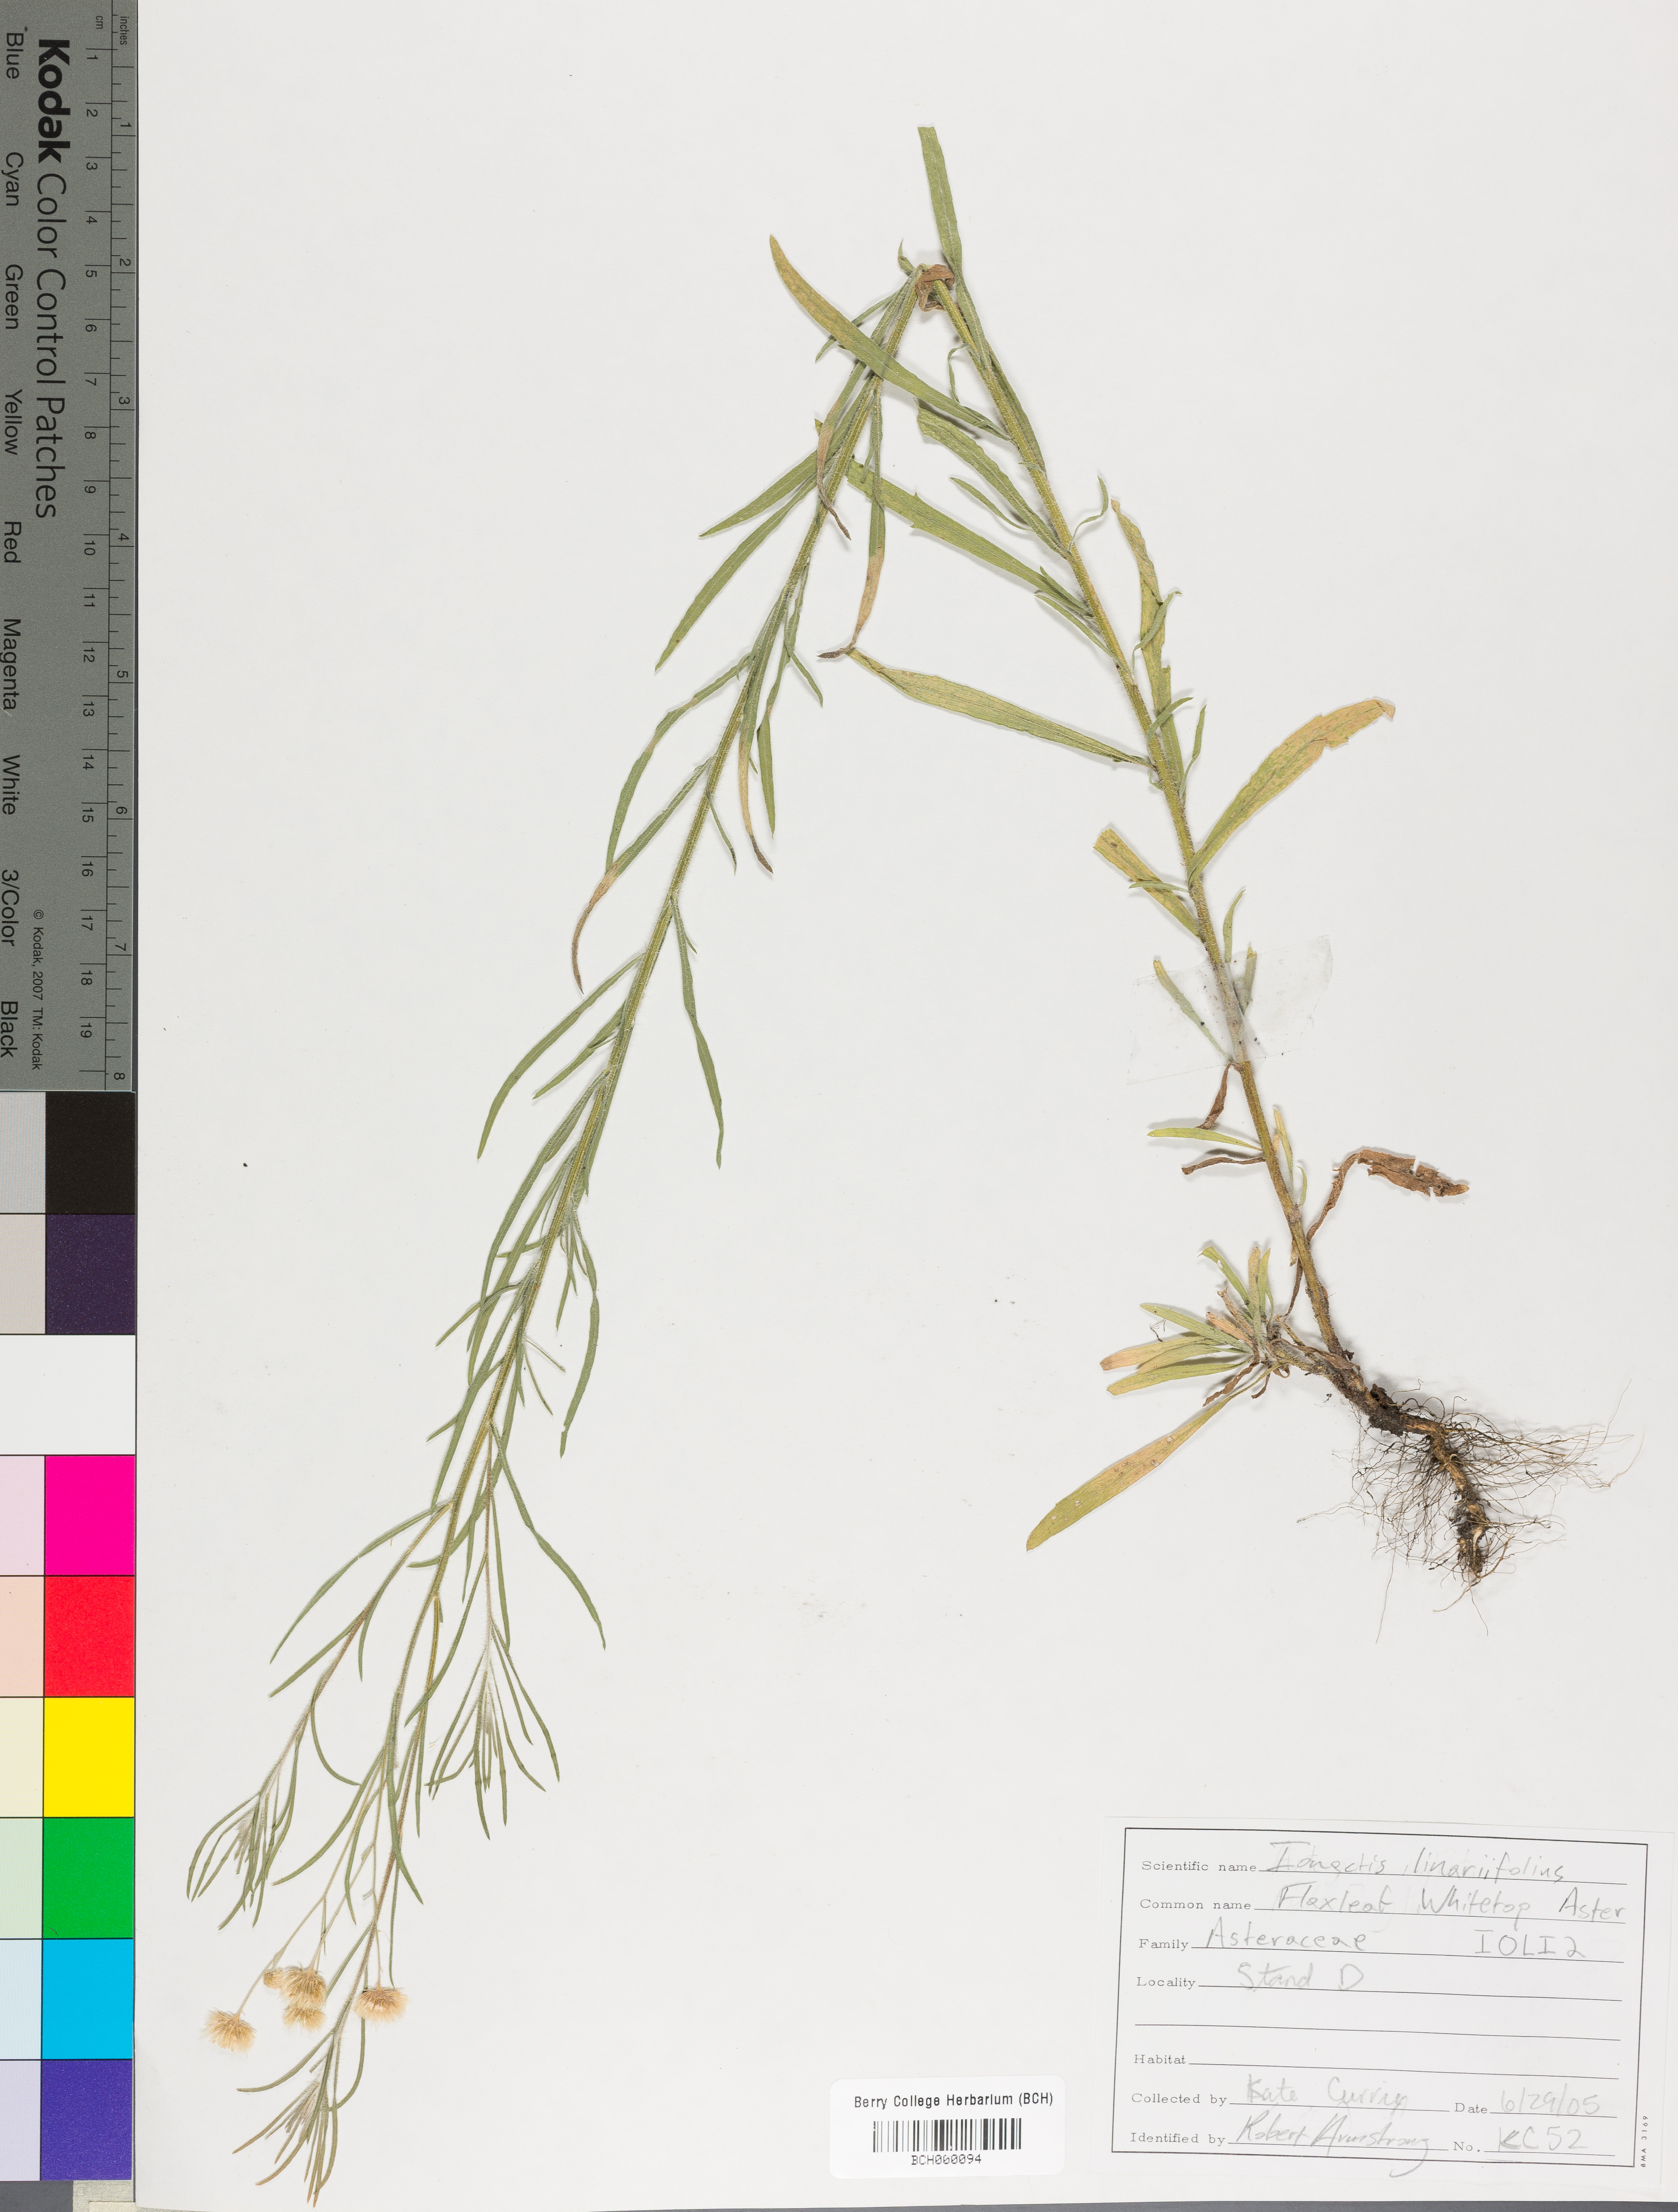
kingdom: Plantae
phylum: Tracheophyta
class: Magnoliopsida
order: Asterales
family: Asteraceae
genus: Ionactis
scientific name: Ionactis linariifolia
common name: Flax-leaf aster
